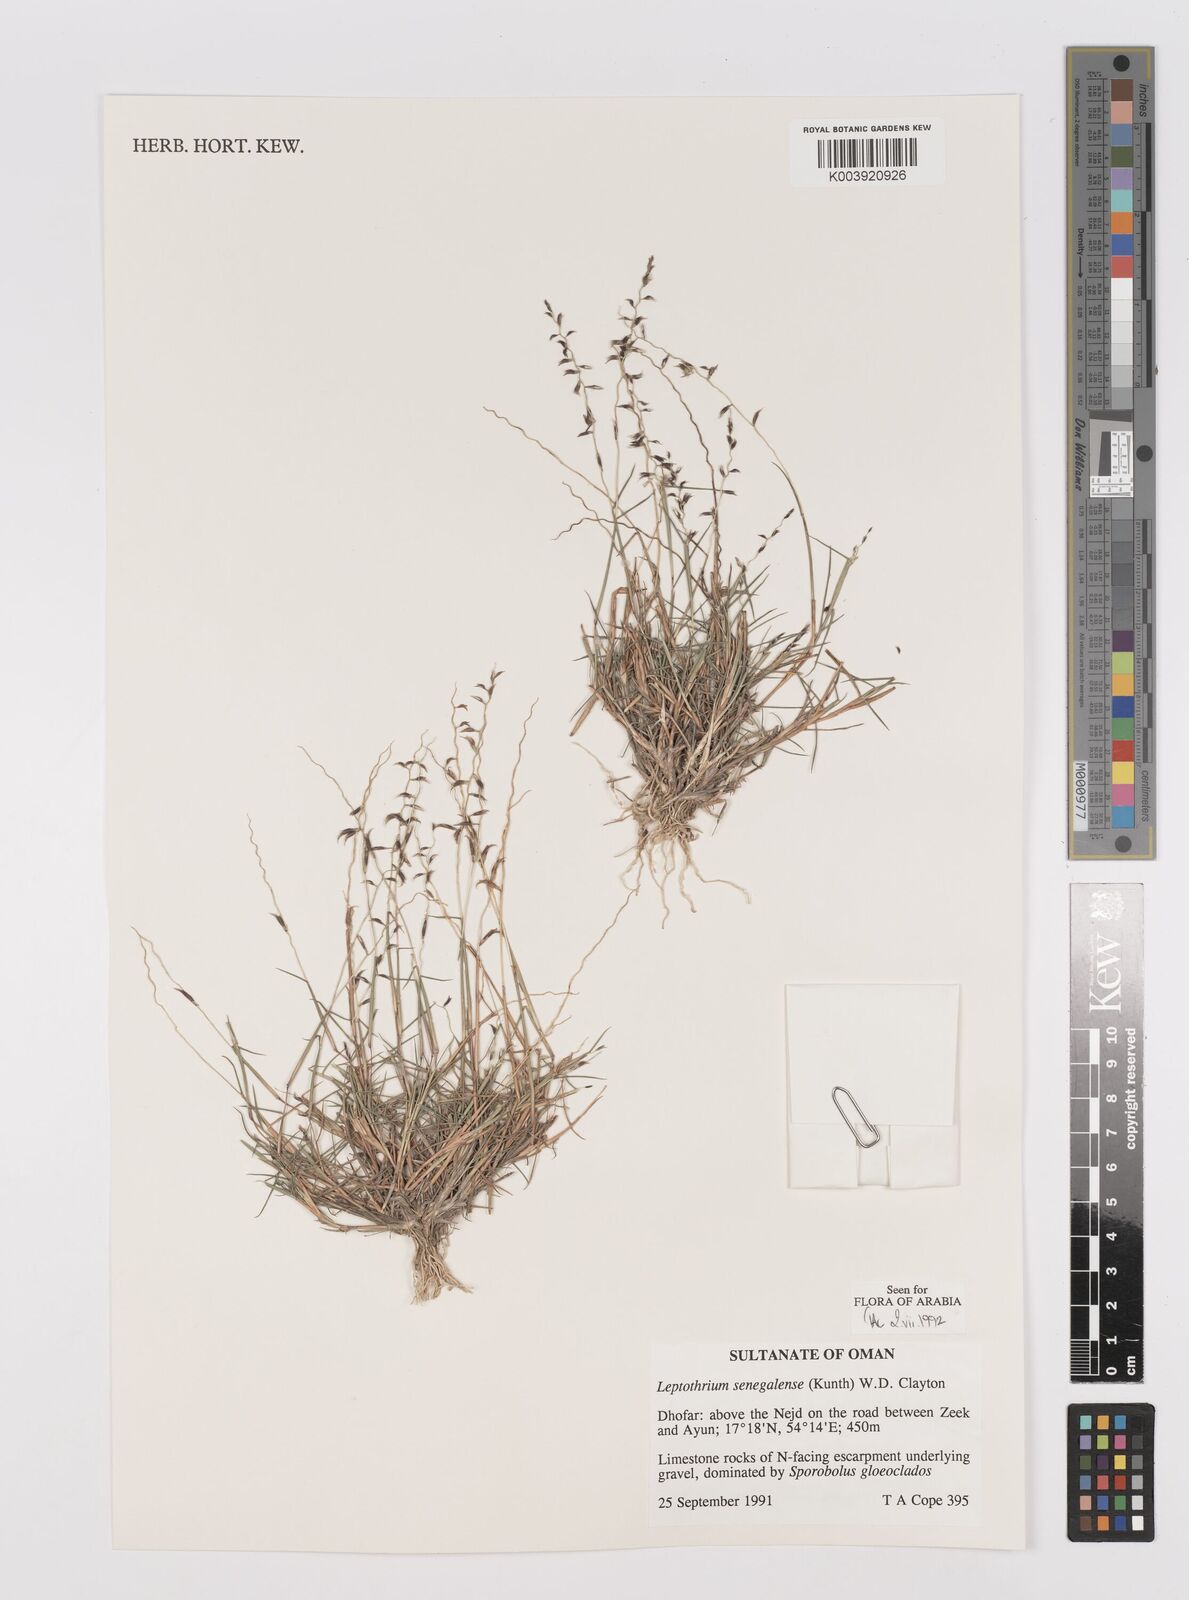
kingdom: Plantae
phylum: Tracheophyta
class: Liliopsida
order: Poales
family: Poaceae
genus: Leptothrium
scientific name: Leptothrium senegalense
